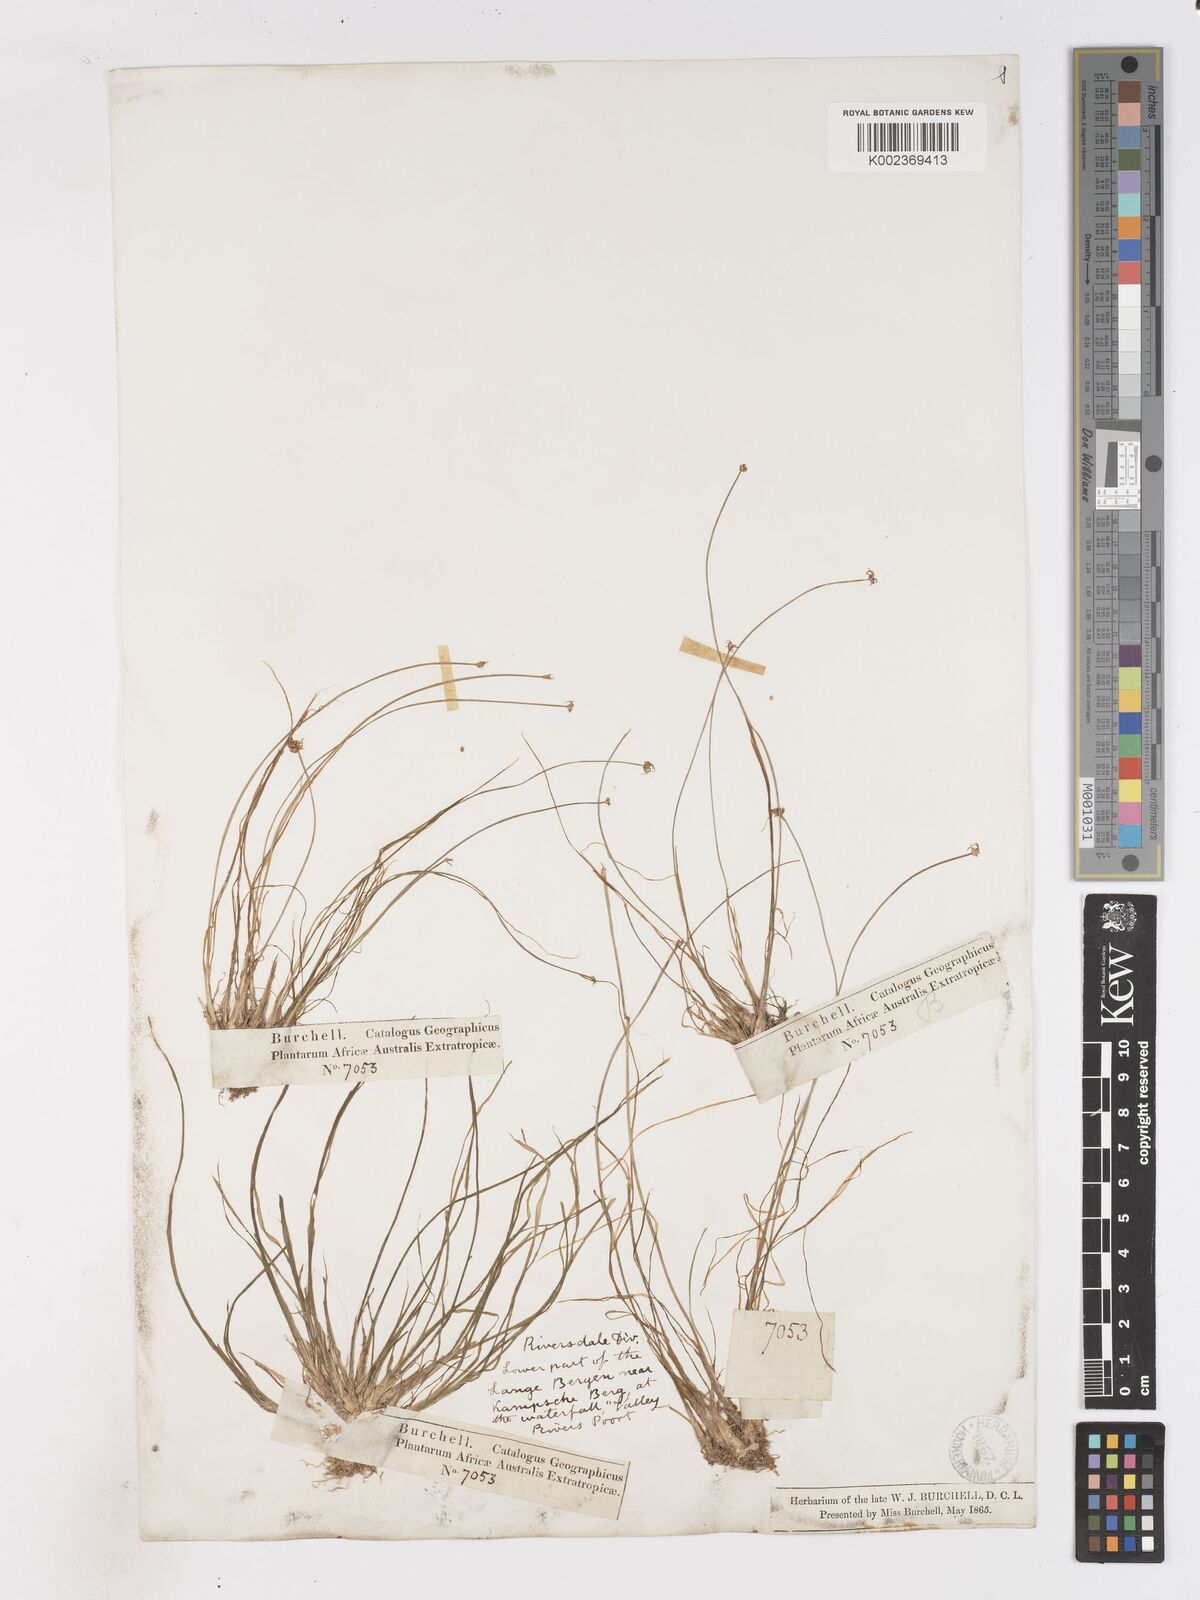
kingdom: Plantae
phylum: Tracheophyta
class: Liliopsida
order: Poales
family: Cyperaceae
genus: Isolepis
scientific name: Isolepis digitata
